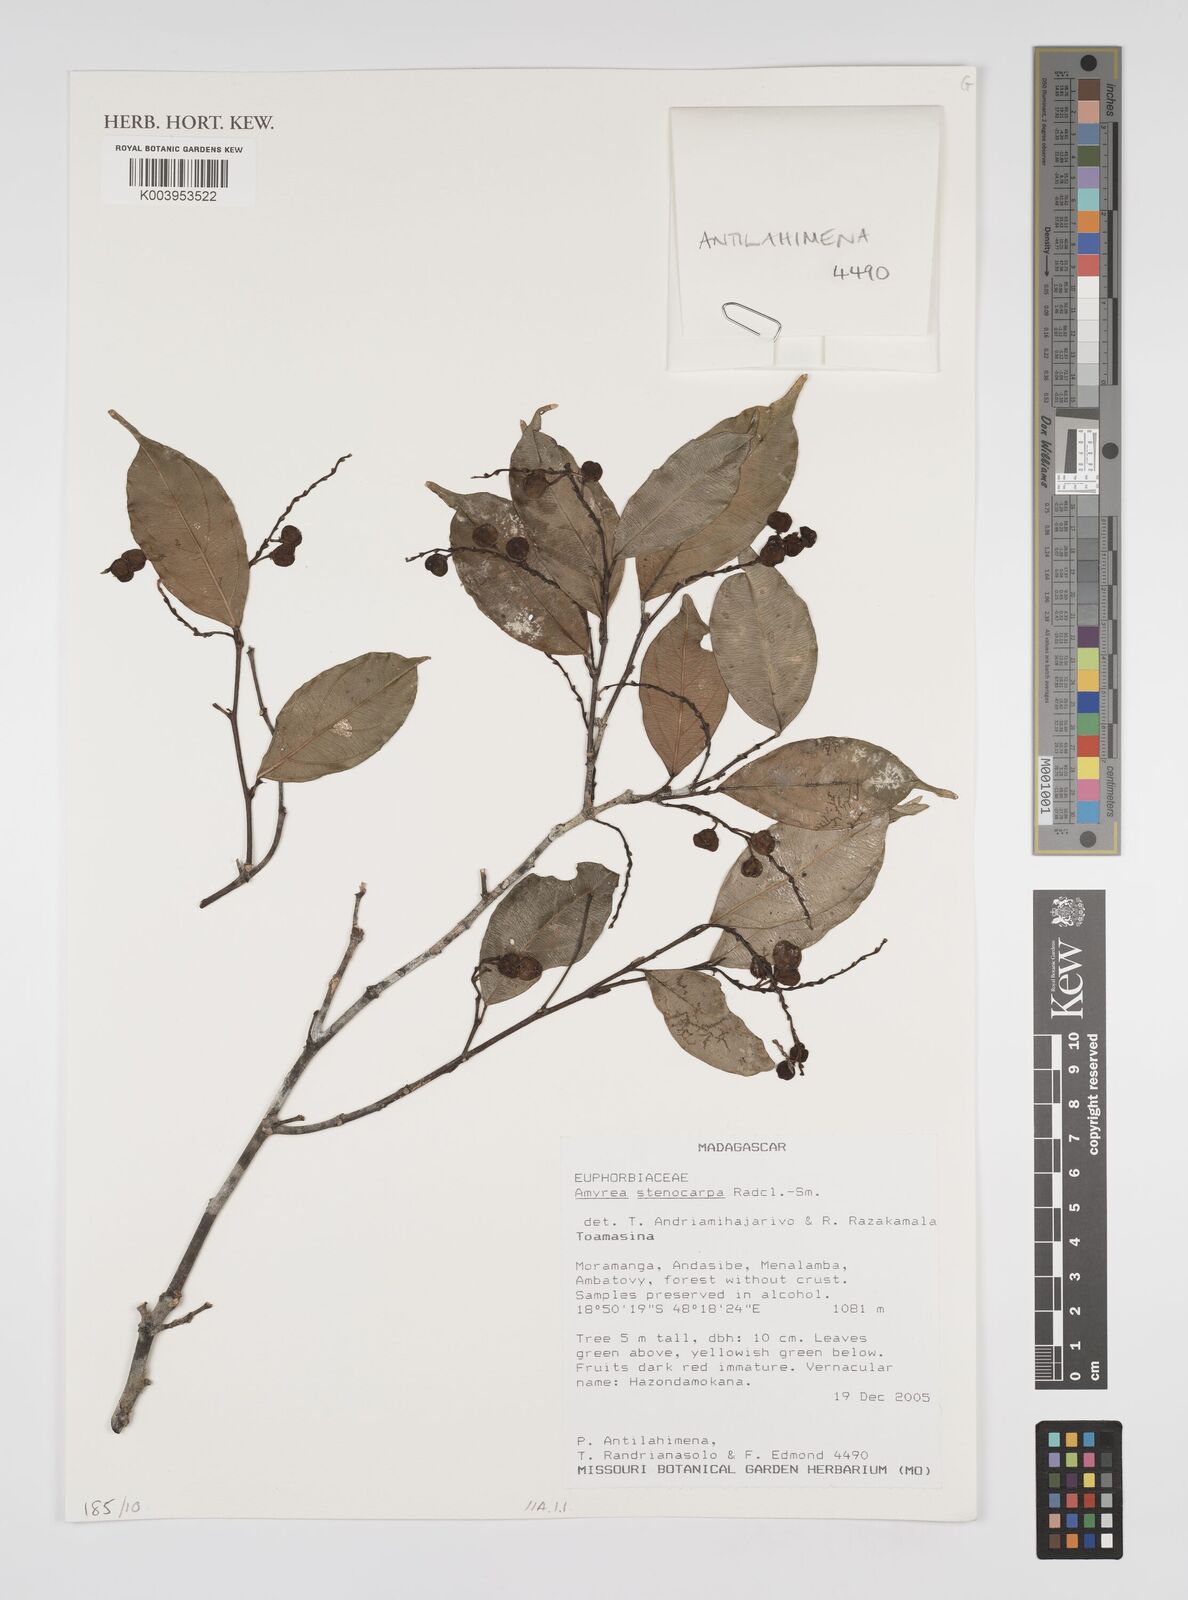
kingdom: Plantae
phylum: Tracheophyta
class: Magnoliopsida
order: Malpighiales
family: Euphorbiaceae
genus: Amyrea
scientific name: Amyrea stenocarpa
